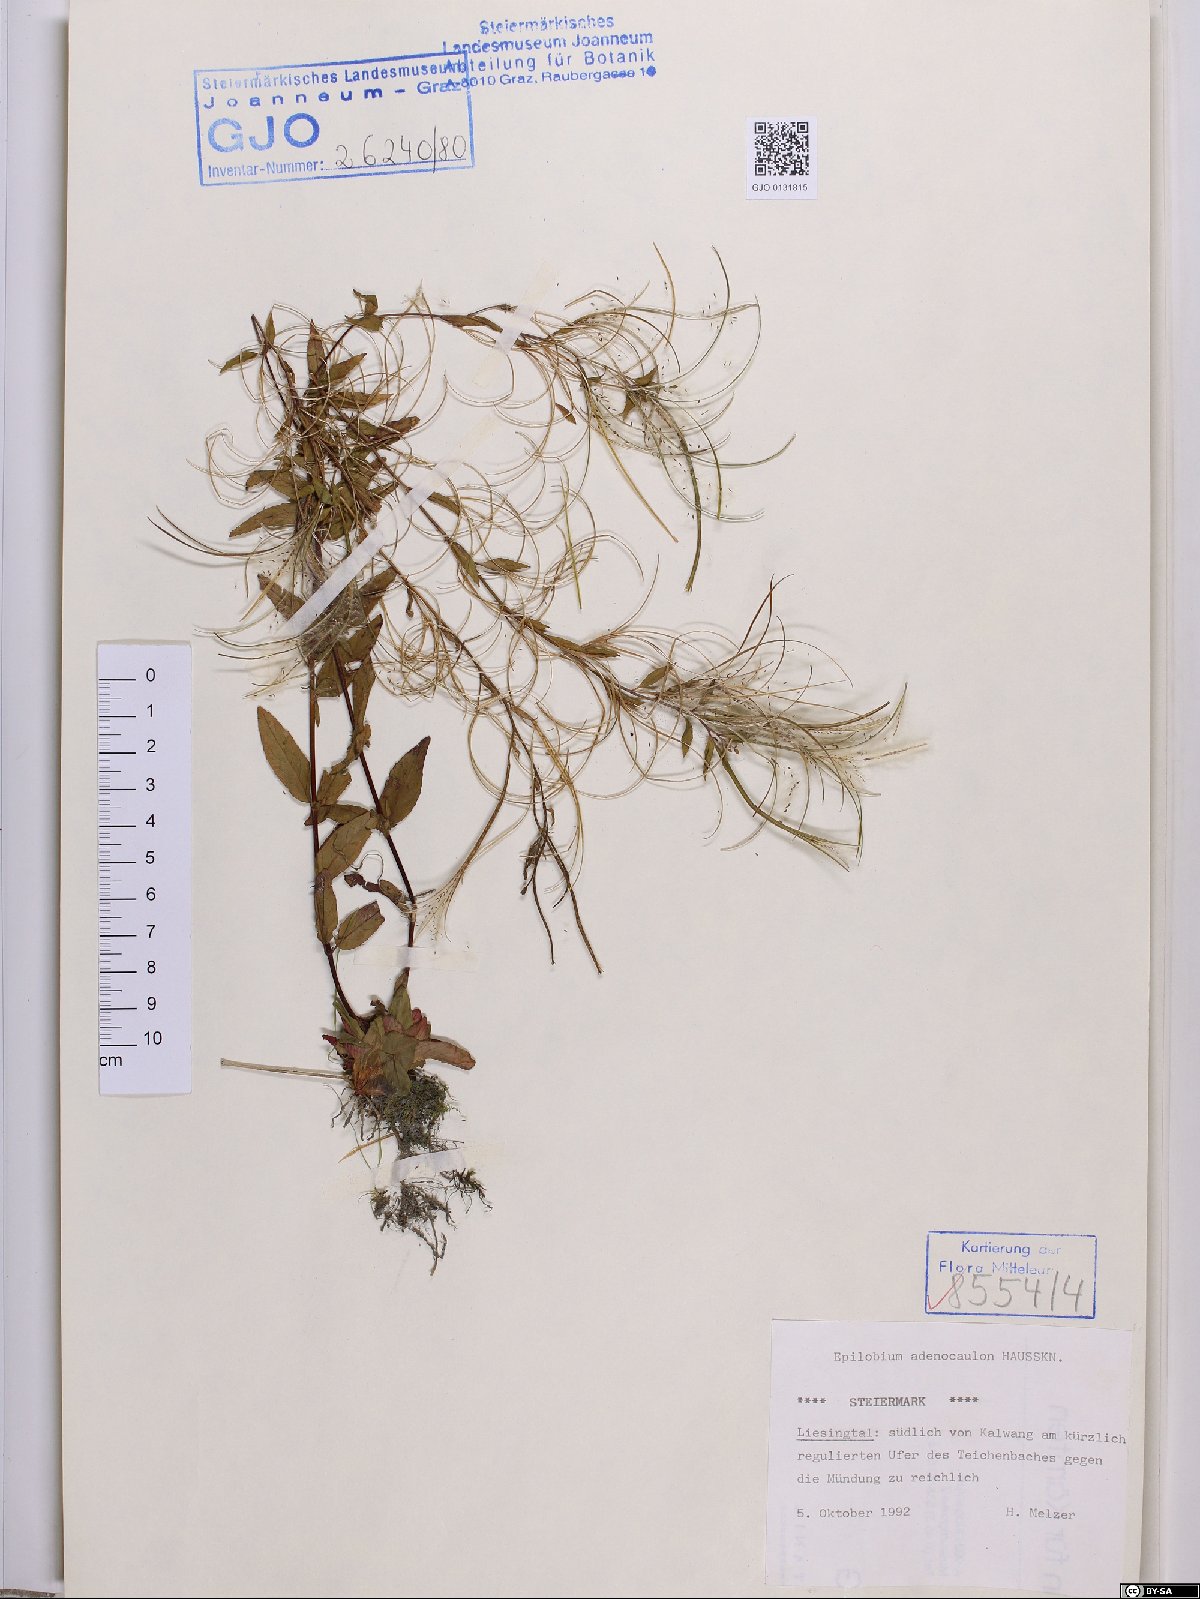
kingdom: Plantae
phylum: Tracheophyta
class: Magnoliopsida
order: Myrtales
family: Onagraceae
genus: Epilobium
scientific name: Epilobium ciliatum
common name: American willowherb
